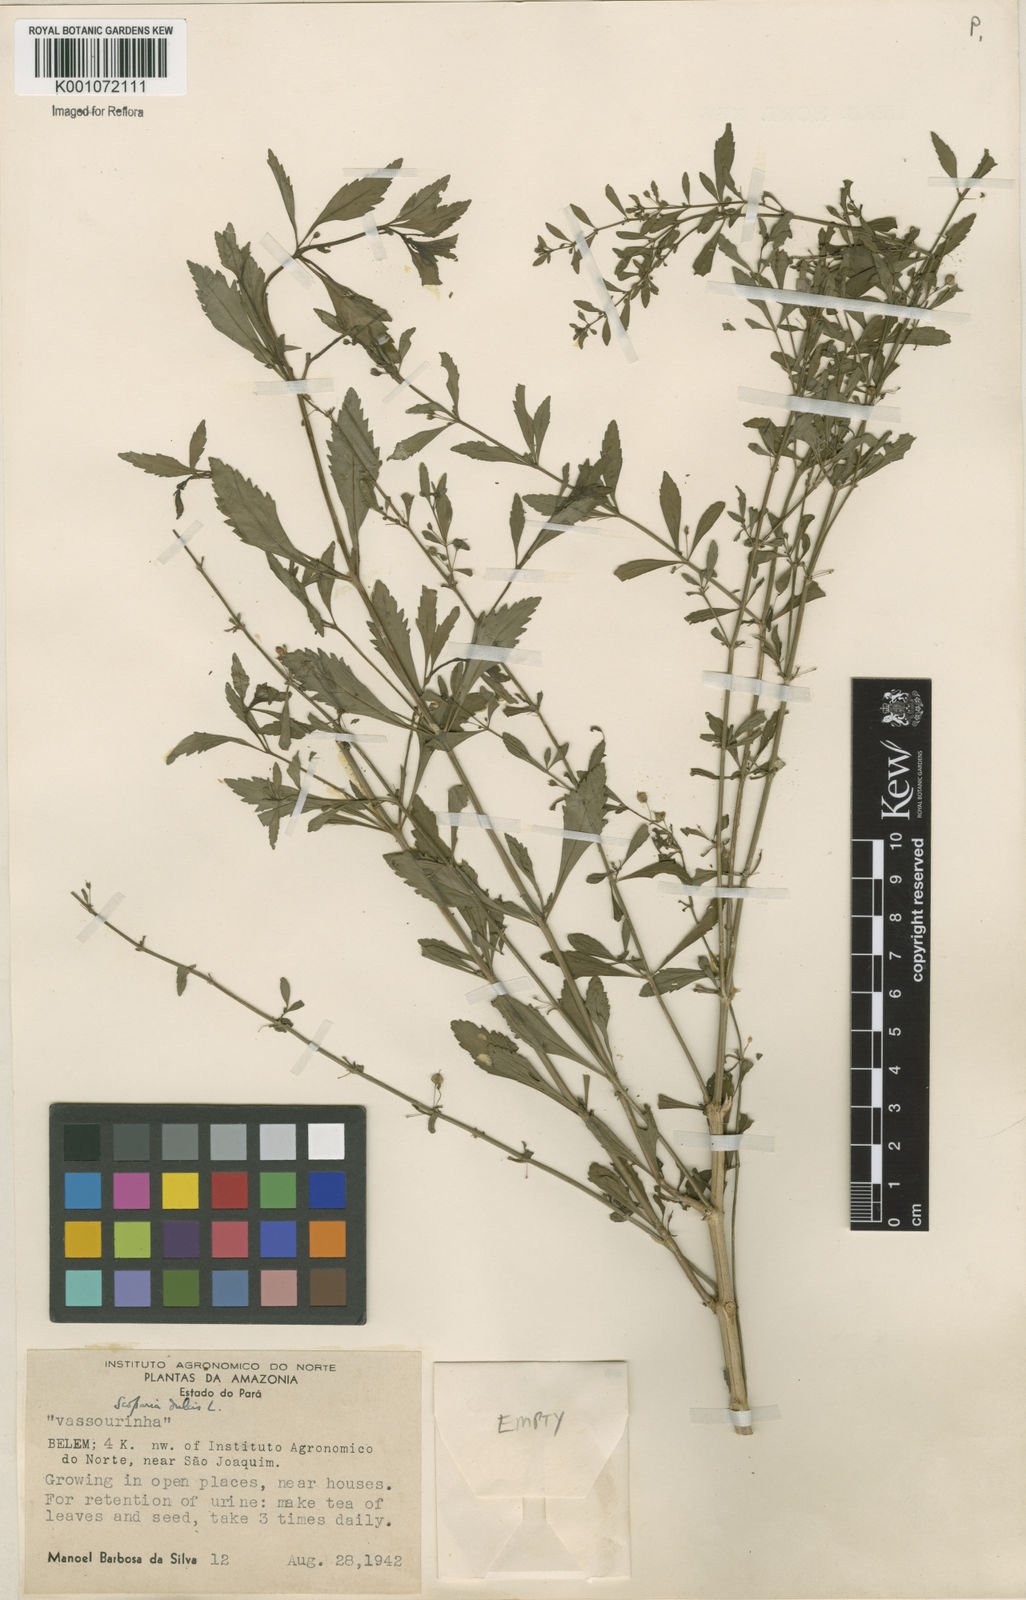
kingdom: Plantae
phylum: Tracheophyta
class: Magnoliopsida
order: Lamiales
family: Plantaginaceae
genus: Scoparia
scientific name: Scoparia dulcis
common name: Scoparia-weed
